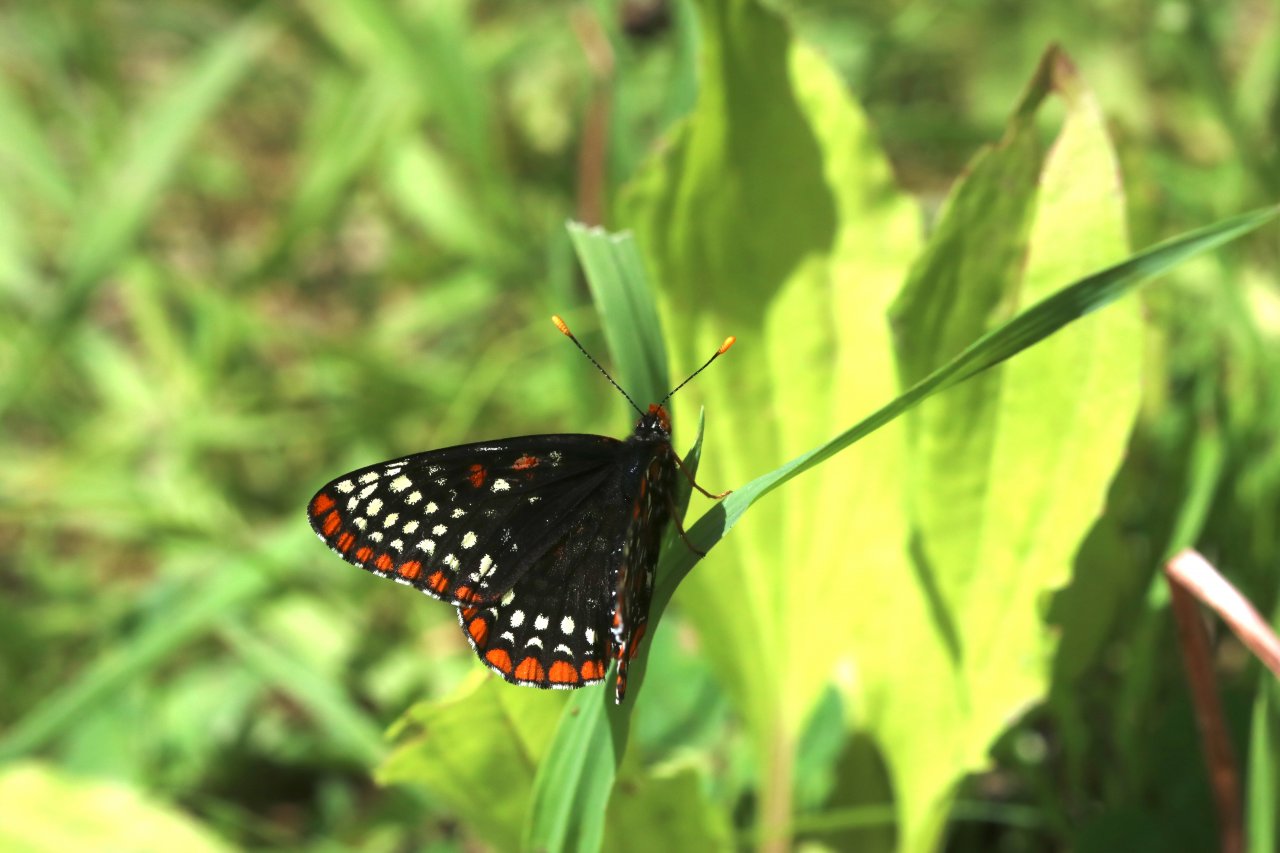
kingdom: Animalia
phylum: Arthropoda
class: Insecta
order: Lepidoptera
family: Nymphalidae
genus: Euphydryas
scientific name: Euphydryas phaeton
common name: Baltimore Checkerspot
